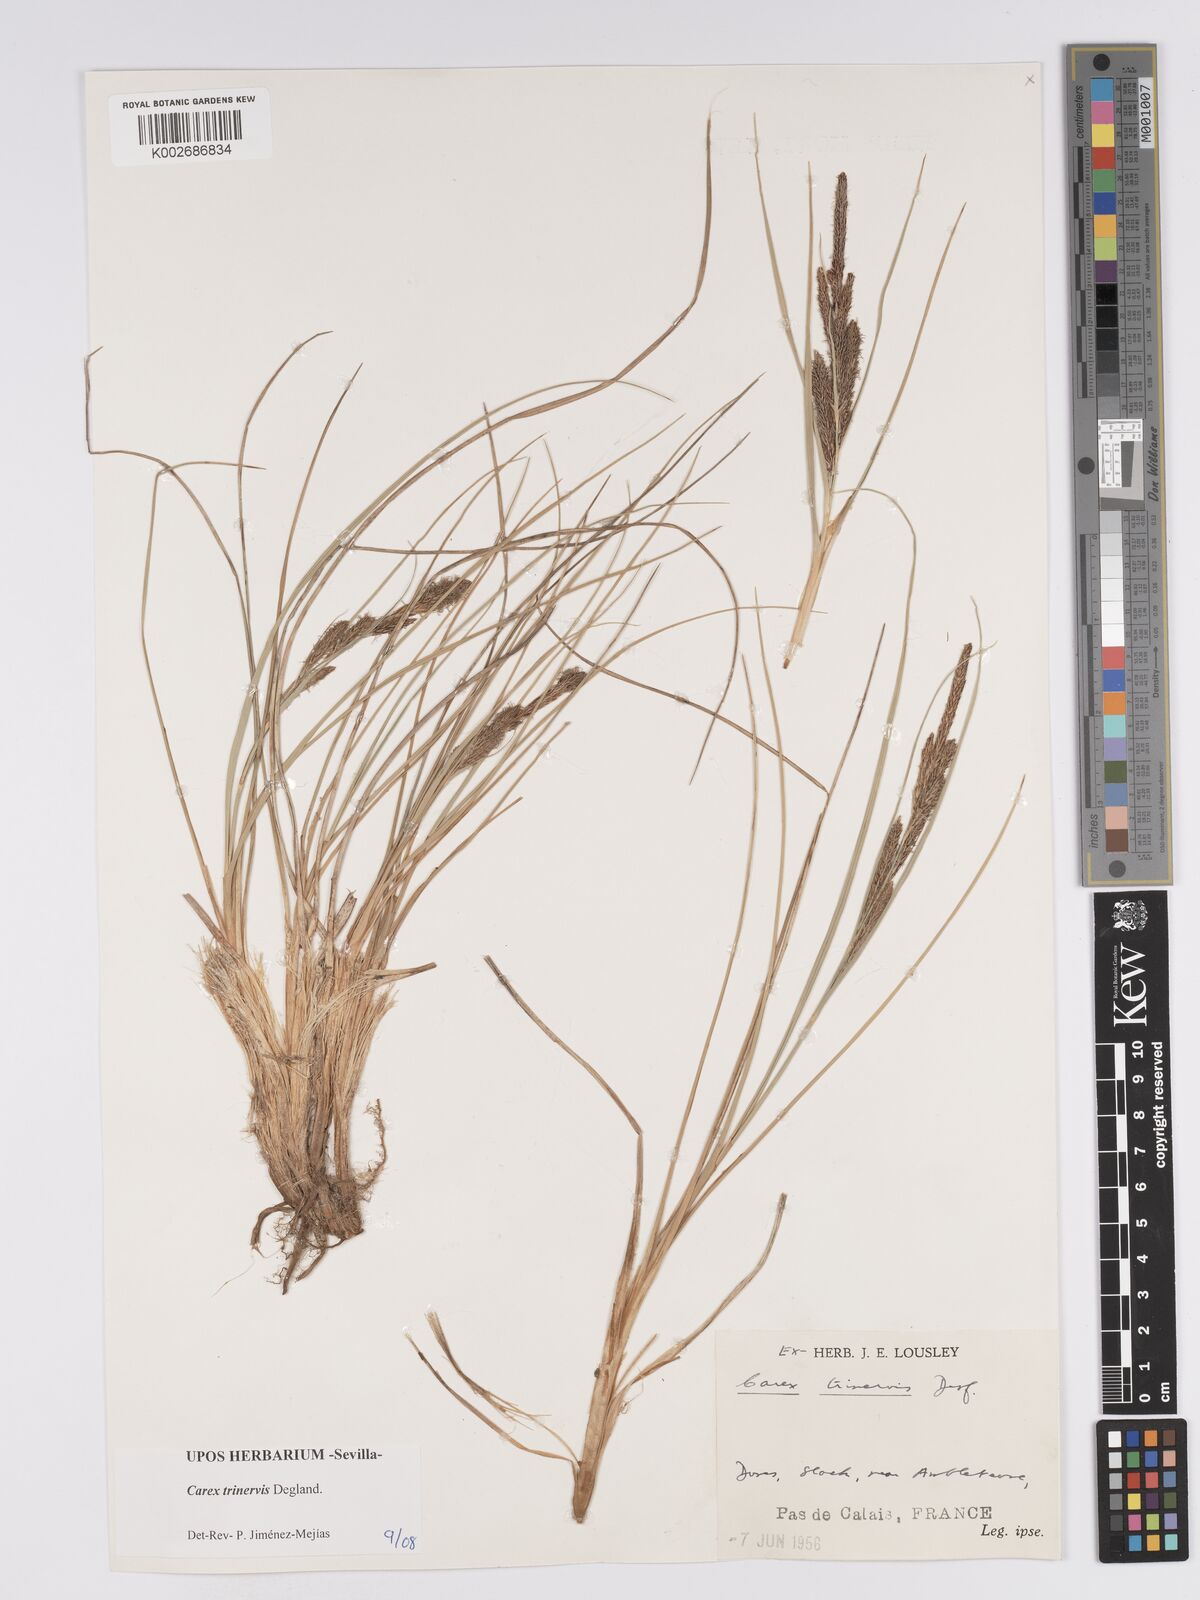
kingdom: Plantae
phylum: Tracheophyta
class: Liliopsida
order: Poales
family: Cyperaceae
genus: Carex
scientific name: Carex trinervis
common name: Three-nerved sedge
